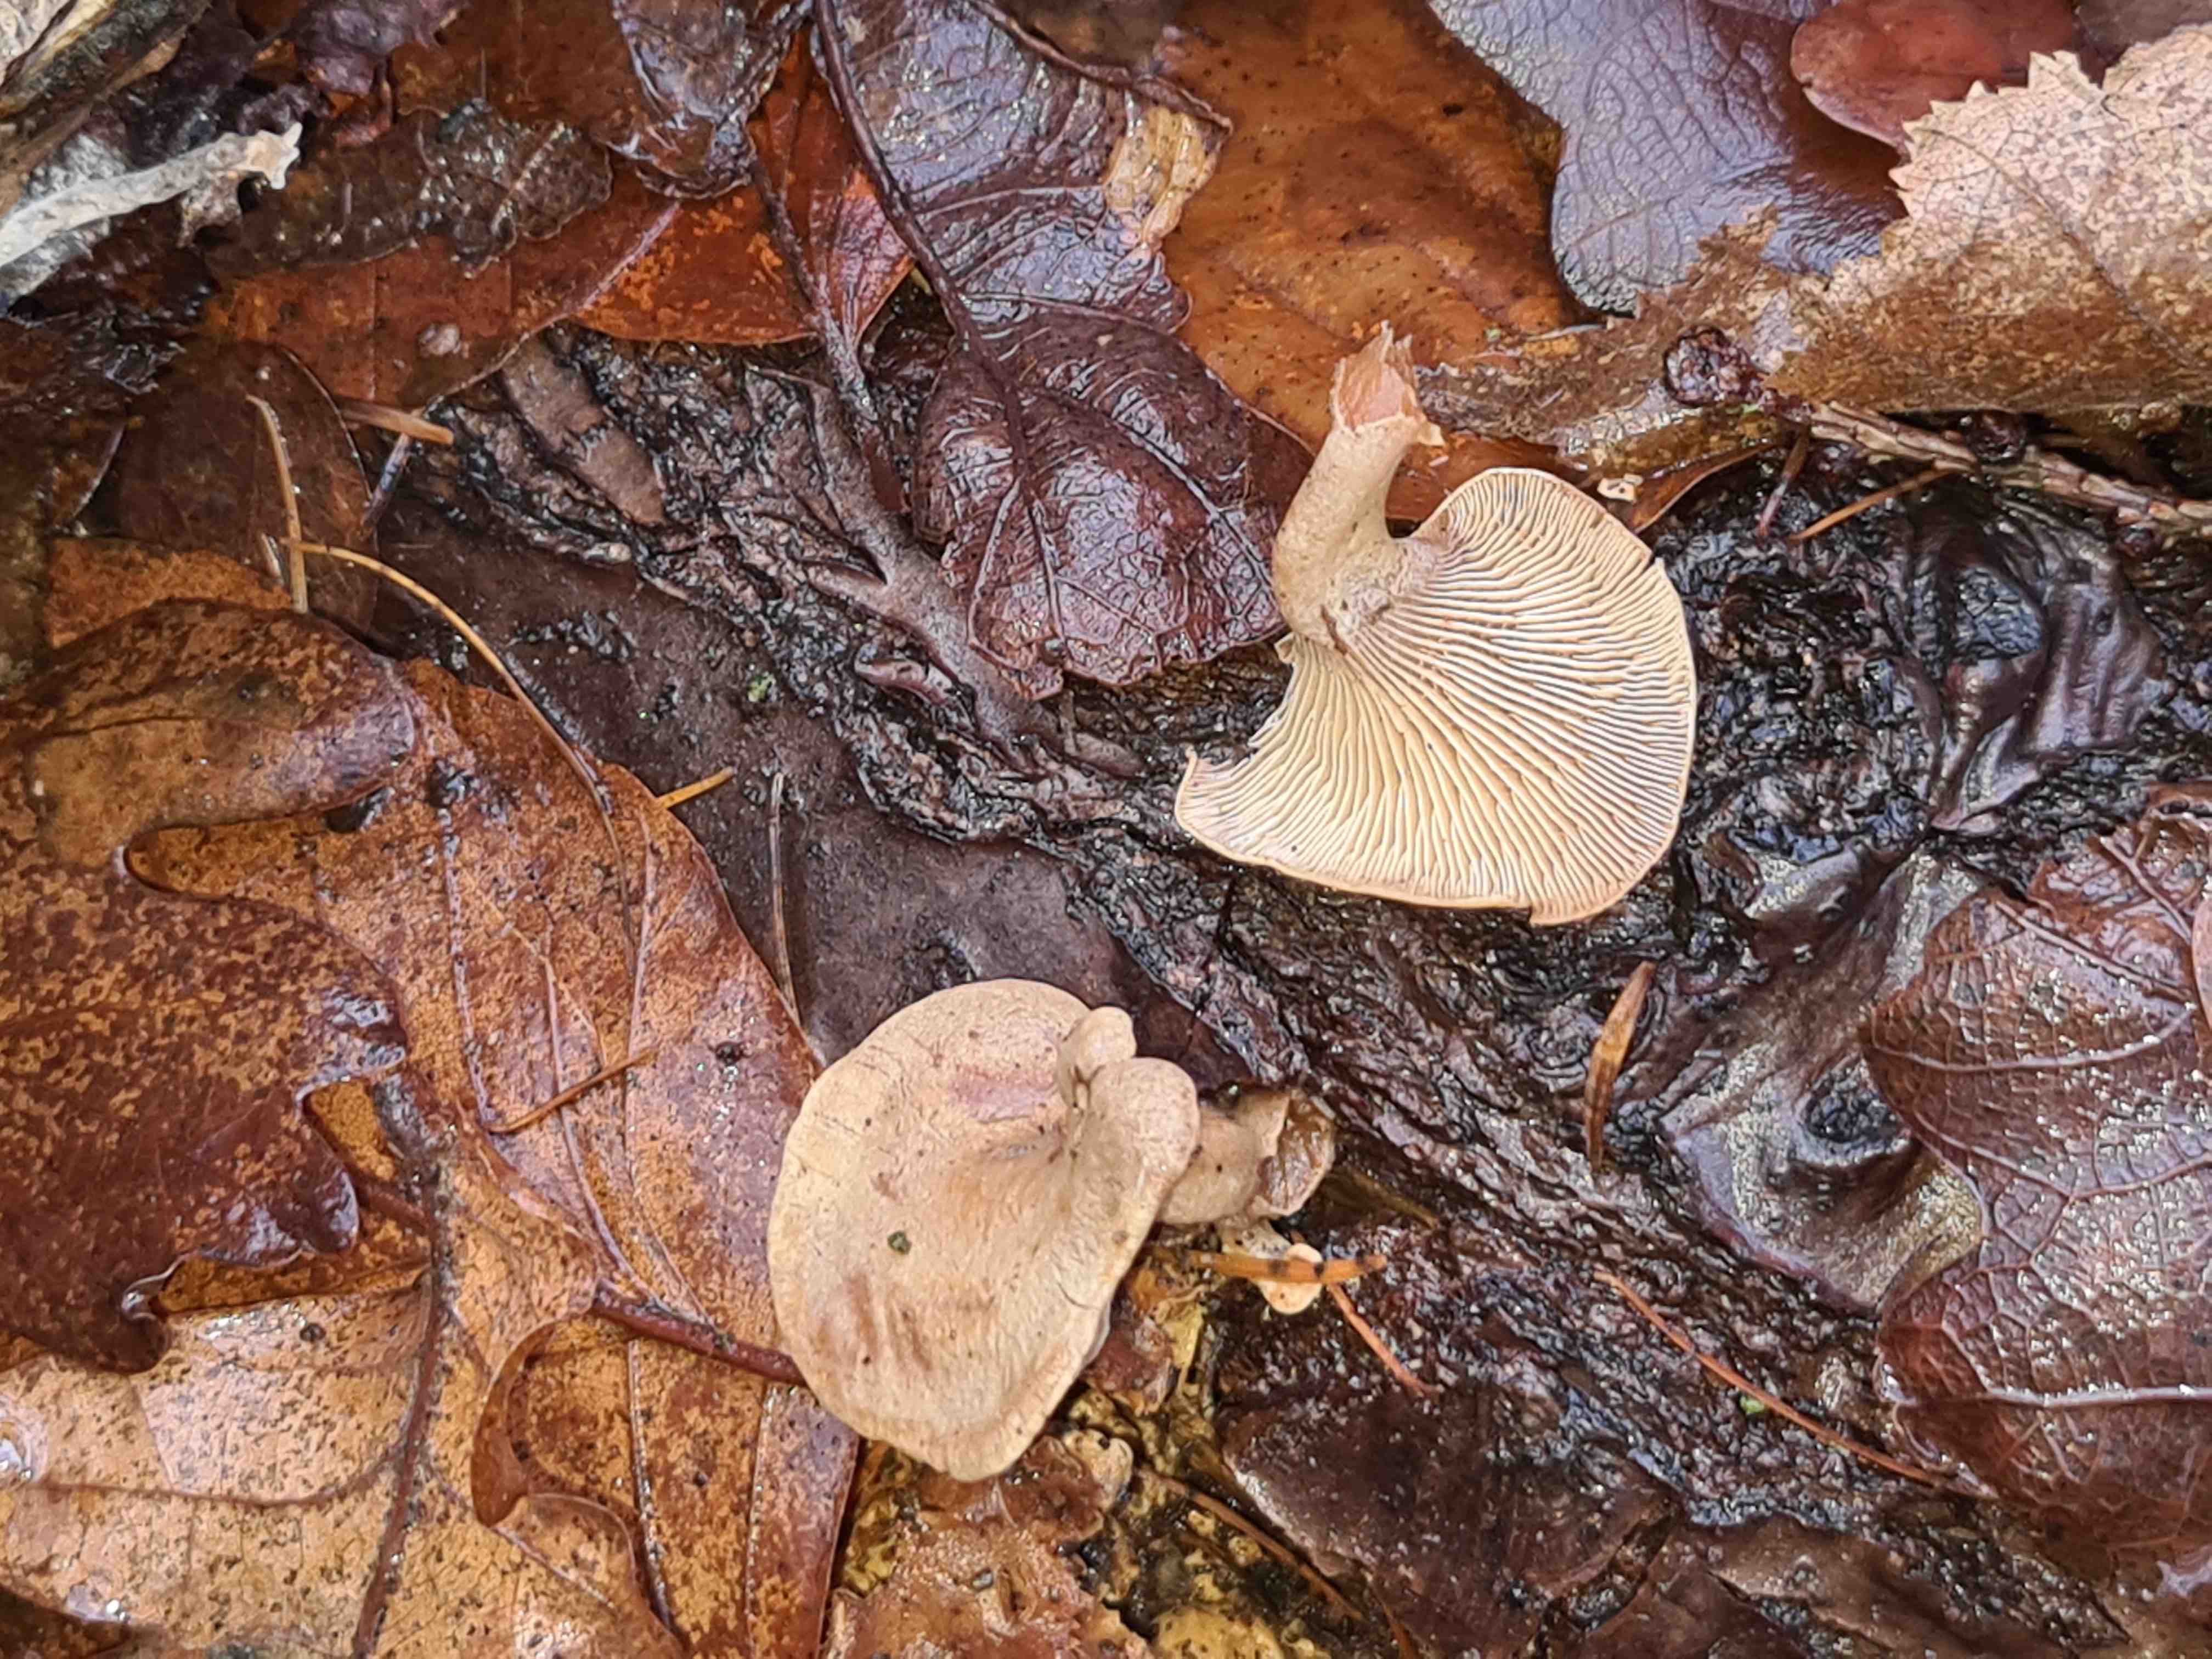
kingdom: Fungi
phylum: Basidiomycota
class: Agaricomycetes
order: Agaricales
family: Mycenaceae
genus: Panellus
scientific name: Panellus stipticus
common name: kliddet epaulethat
